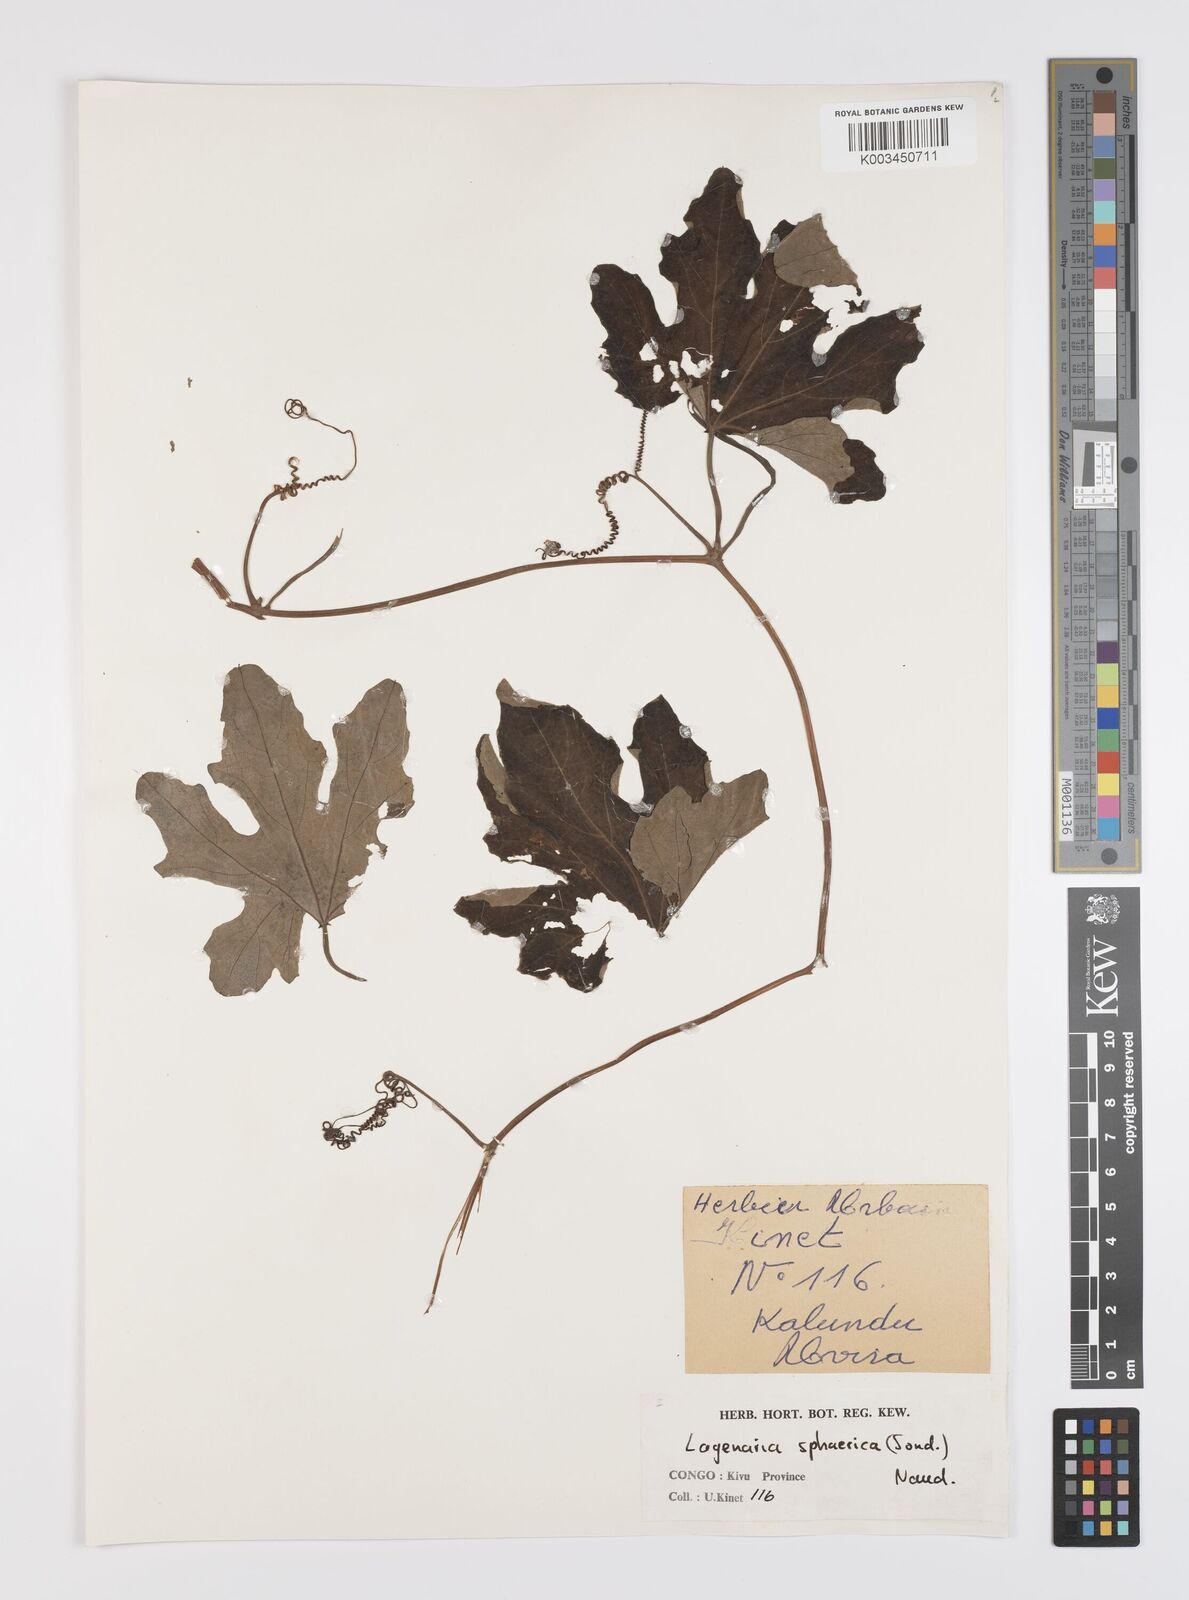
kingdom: Plantae
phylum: Tracheophyta
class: Magnoliopsida
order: Cucurbitales
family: Cucurbitaceae
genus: Lagenaria
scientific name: Lagenaria sphaerica
